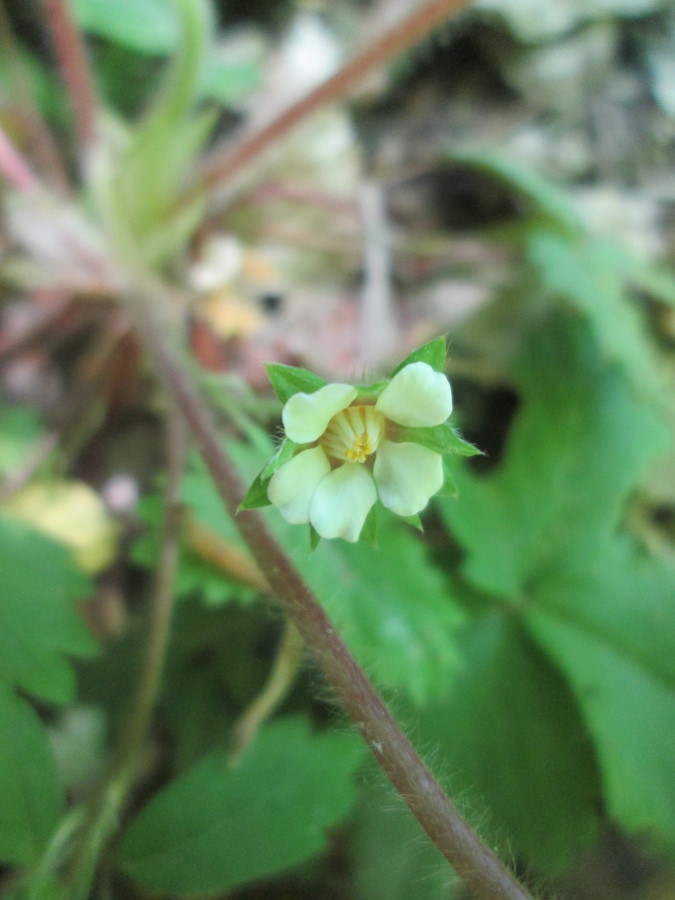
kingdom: Plantae
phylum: Tracheophyta
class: Magnoliopsida
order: Rosales
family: Rosaceae
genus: Potentilla
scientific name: Potentilla
